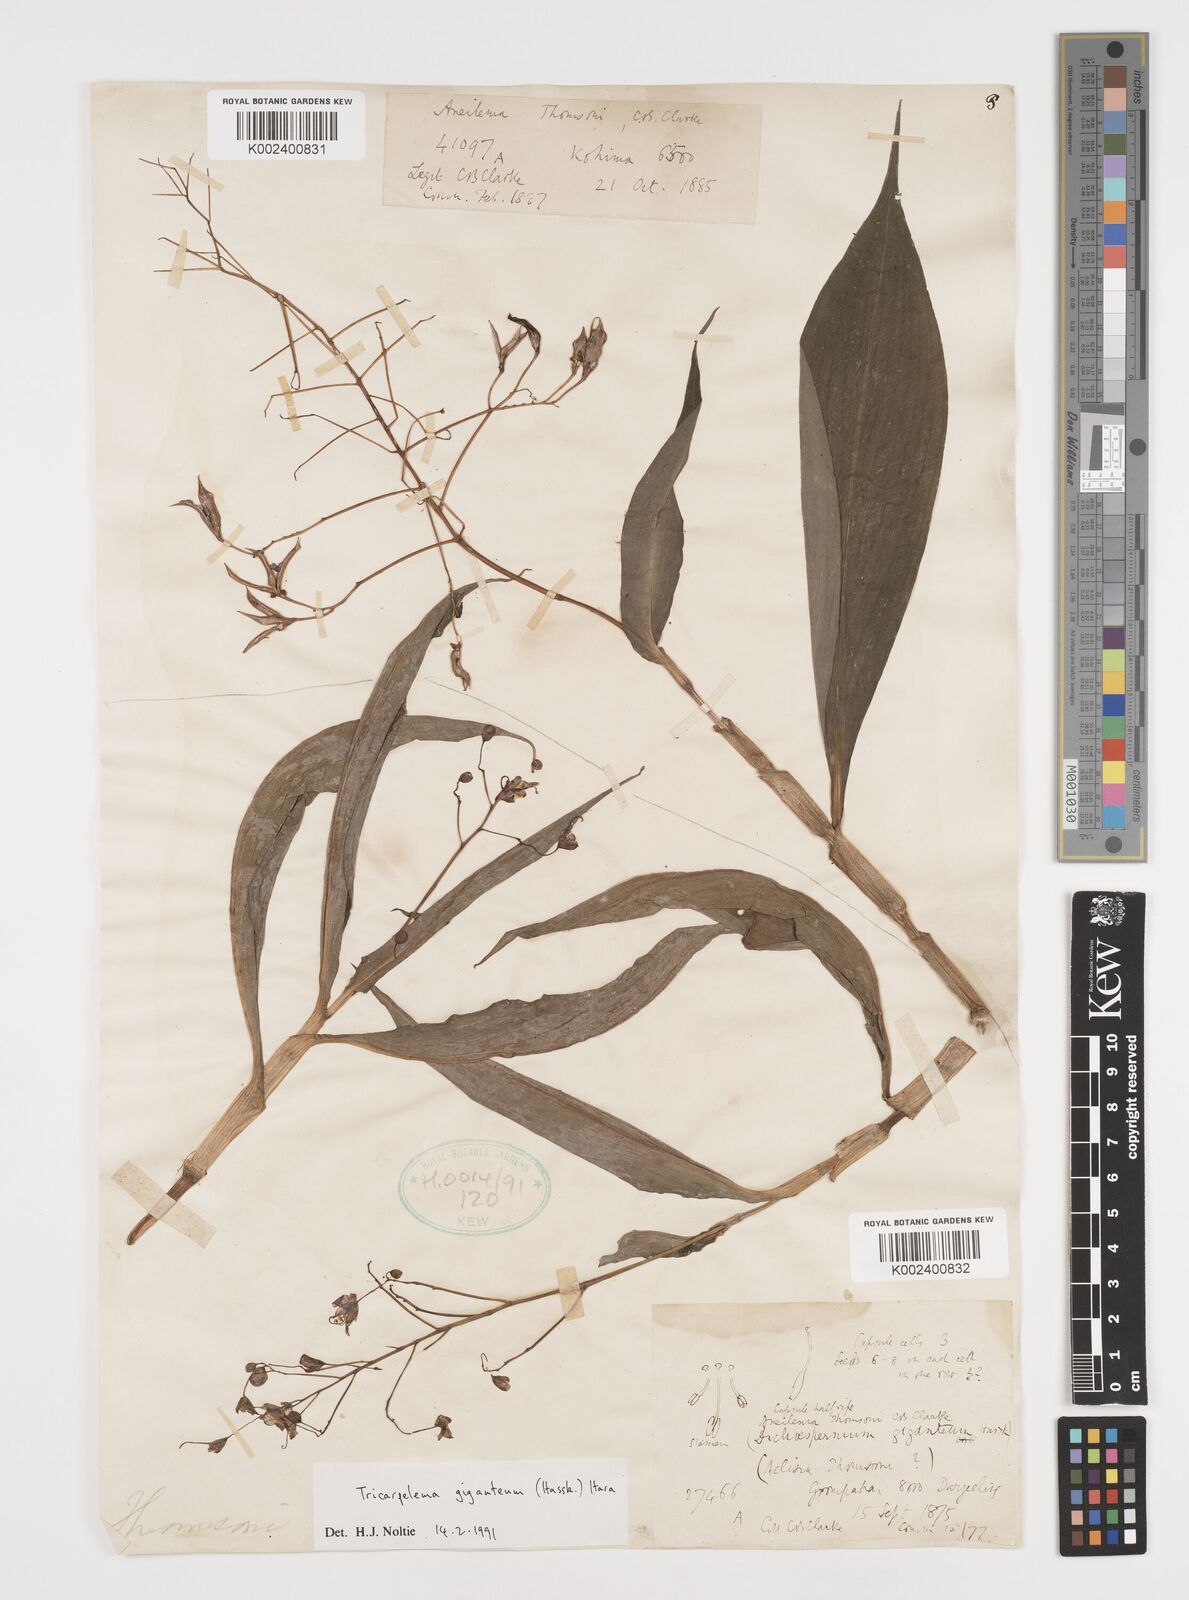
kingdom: Plantae
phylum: Tracheophyta
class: Liliopsida
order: Commelinales
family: Commelinaceae
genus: Tricarpelema
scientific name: Tricarpelema giganteum
